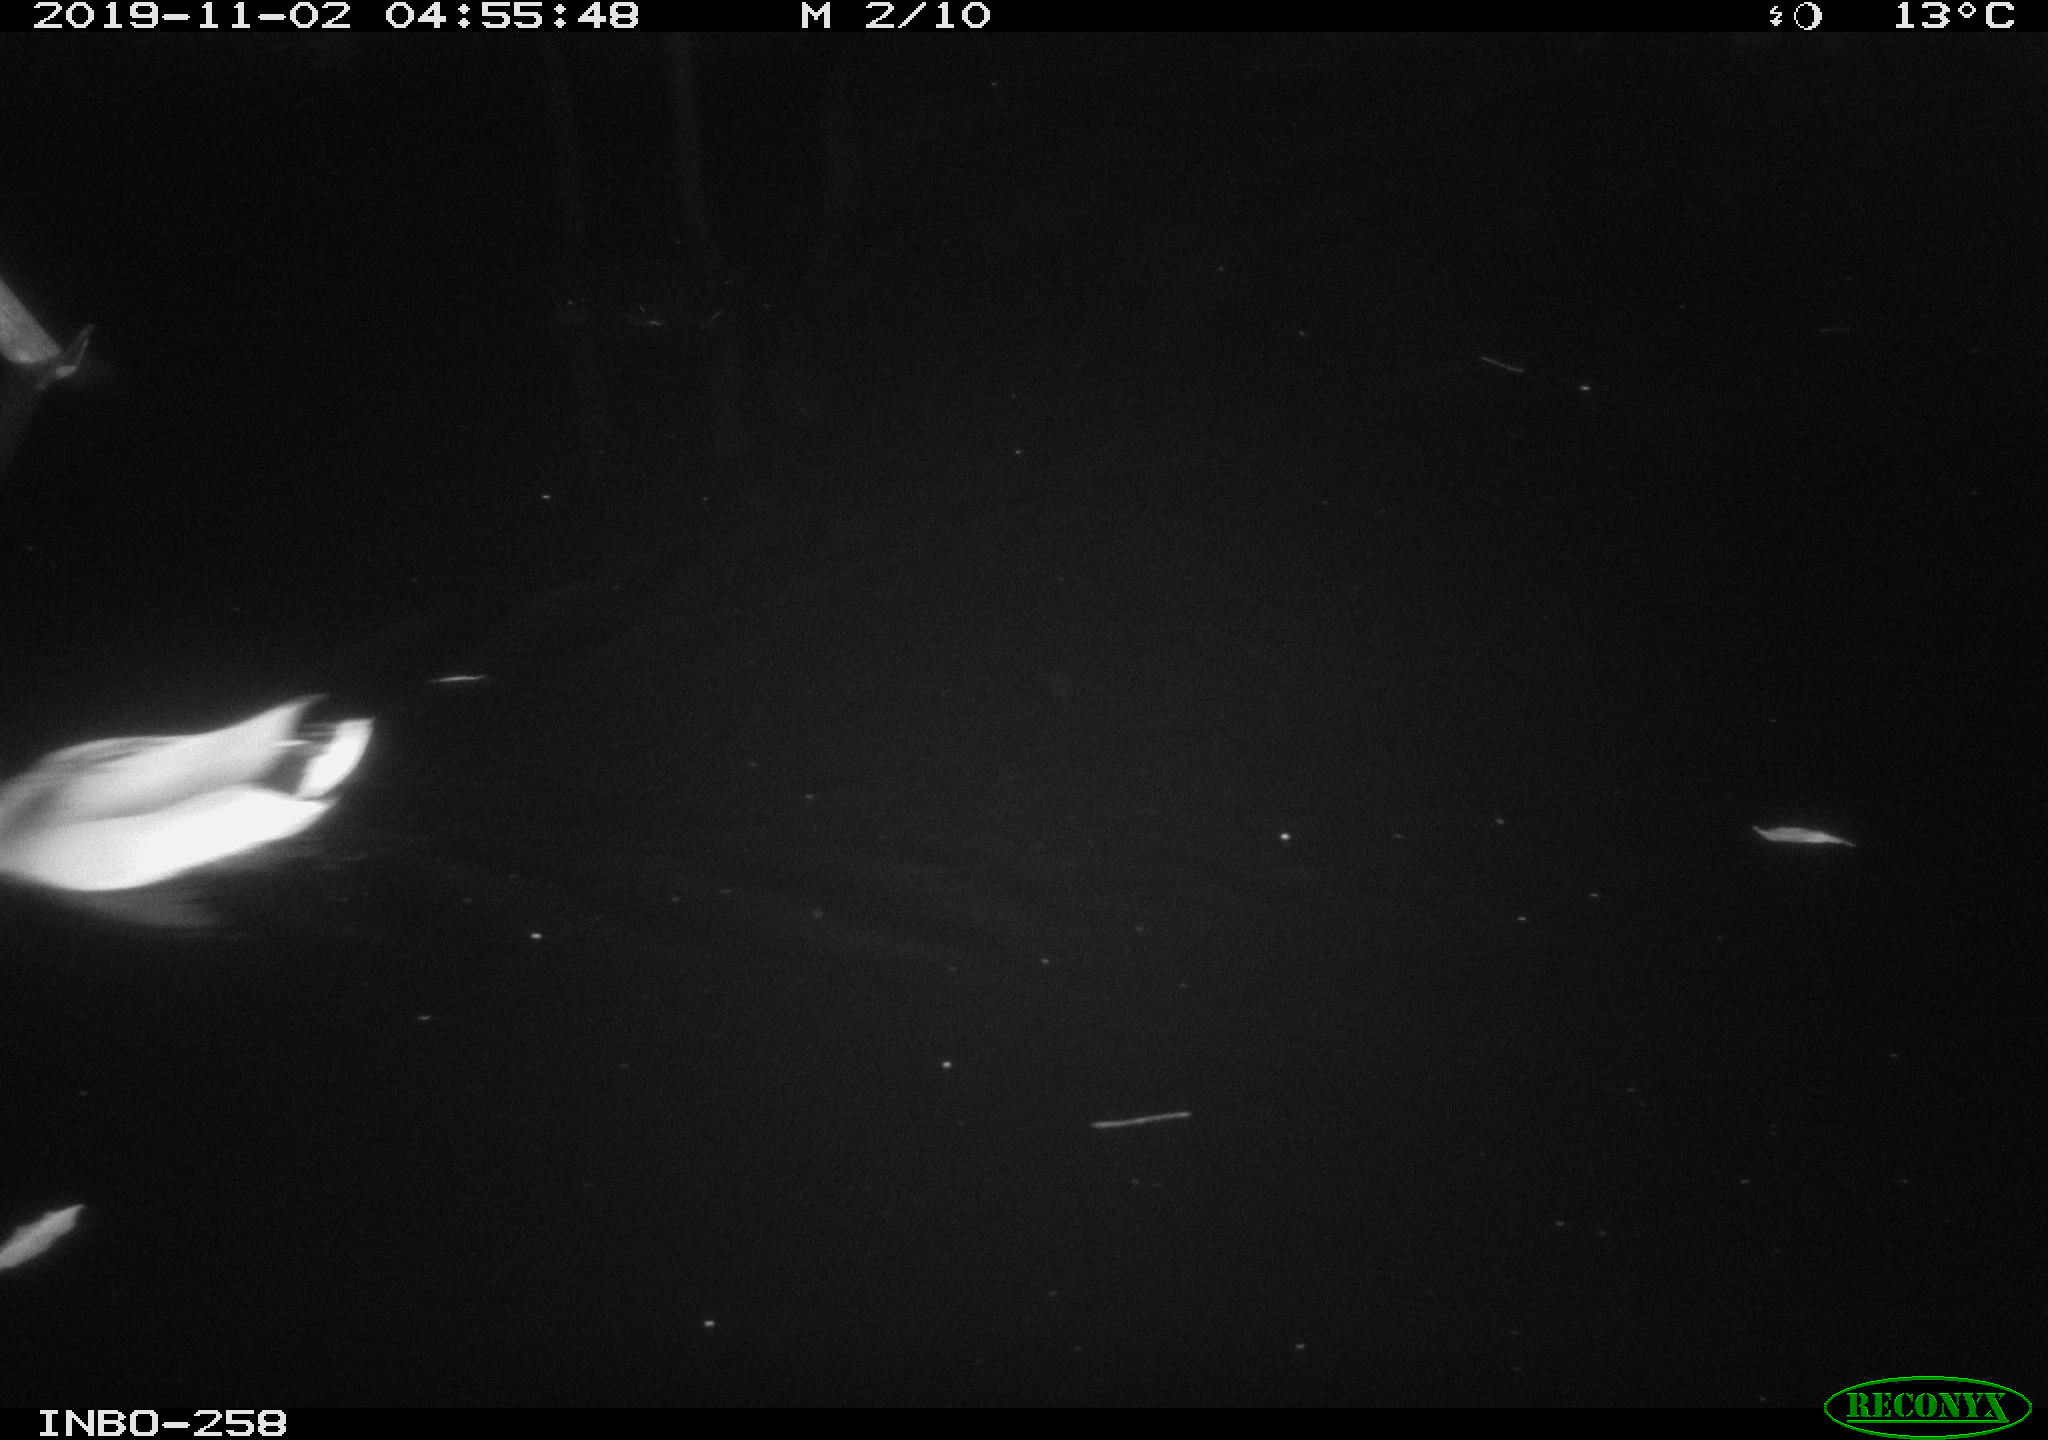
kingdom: Animalia
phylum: Chordata
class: Aves
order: Anseriformes
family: Anatidae
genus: Anas
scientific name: Anas platyrhynchos
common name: Mallard
